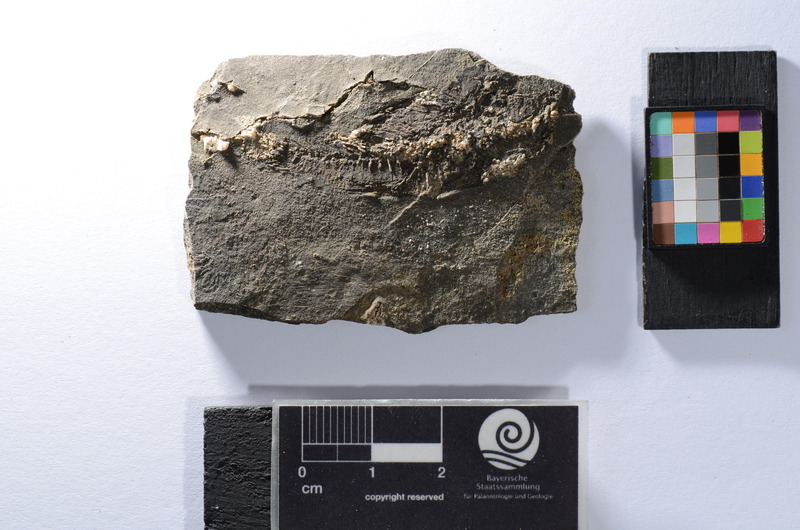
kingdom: Animalia
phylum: Chordata
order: Perciformes
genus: Smerdis
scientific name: Smerdis micracanthus
